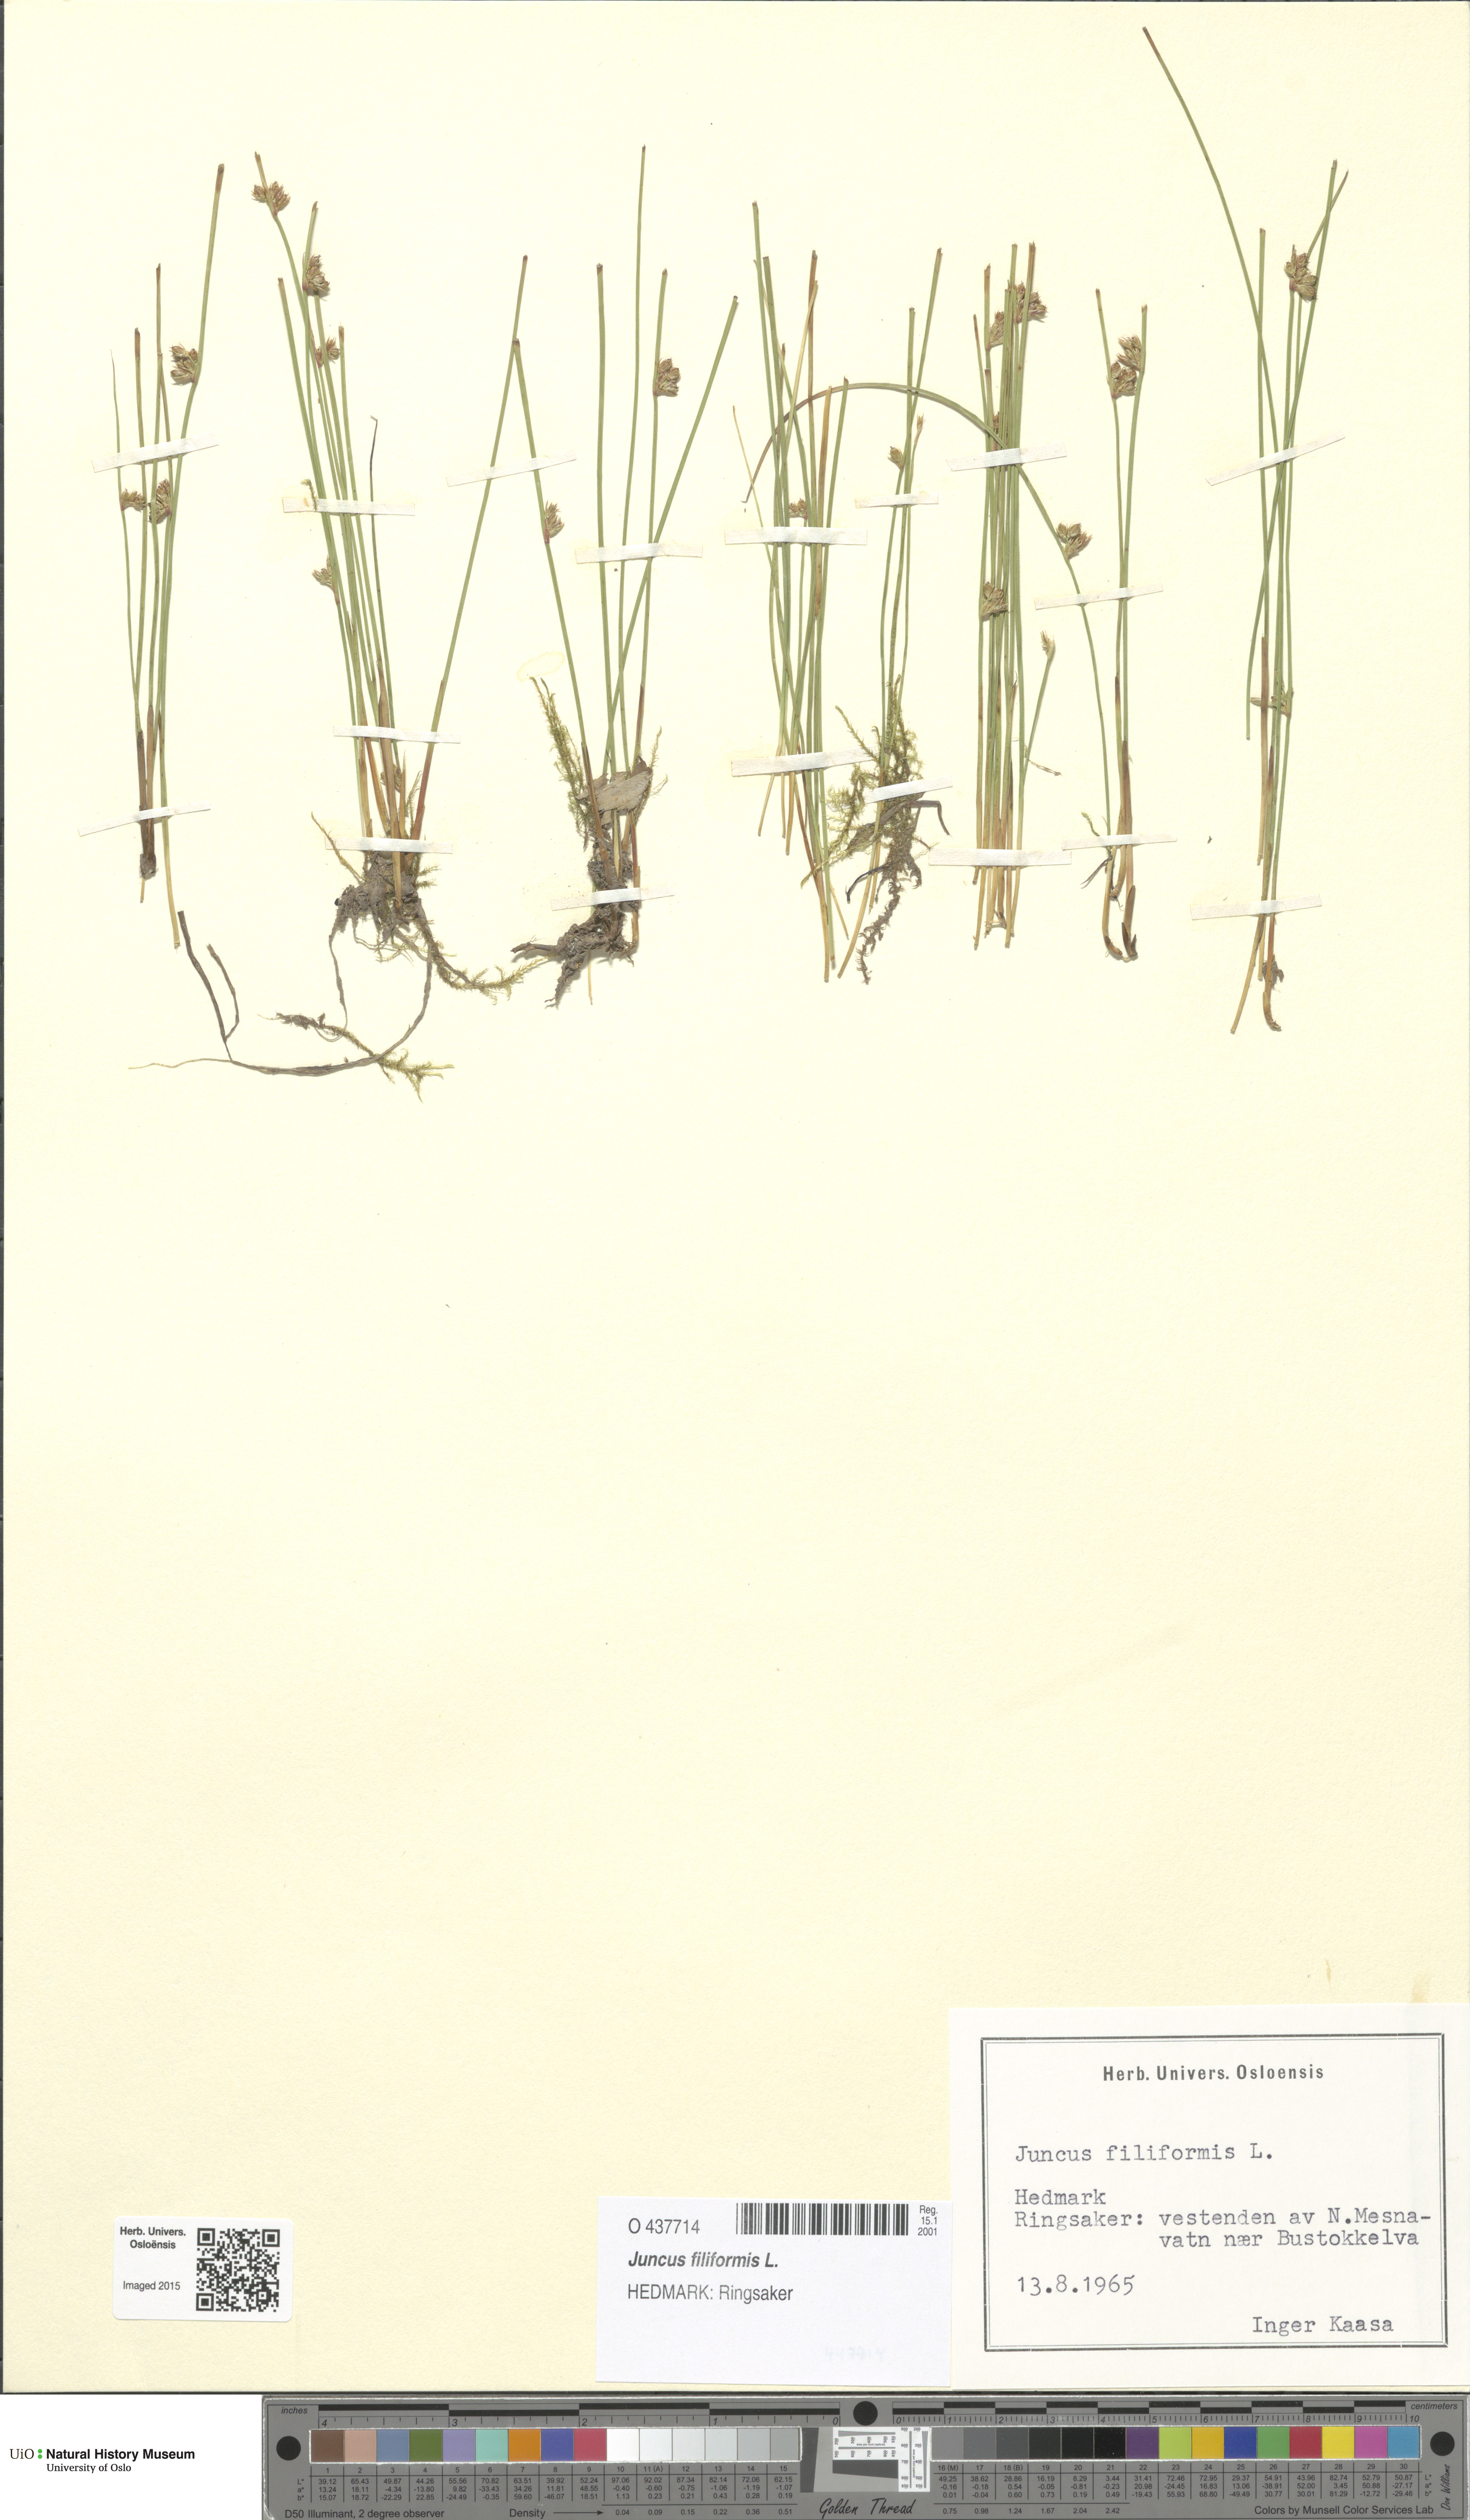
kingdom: Plantae
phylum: Tracheophyta
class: Liliopsida
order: Poales
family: Juncaceae
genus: Juncus
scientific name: Juncus filiformis
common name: Thread rush
